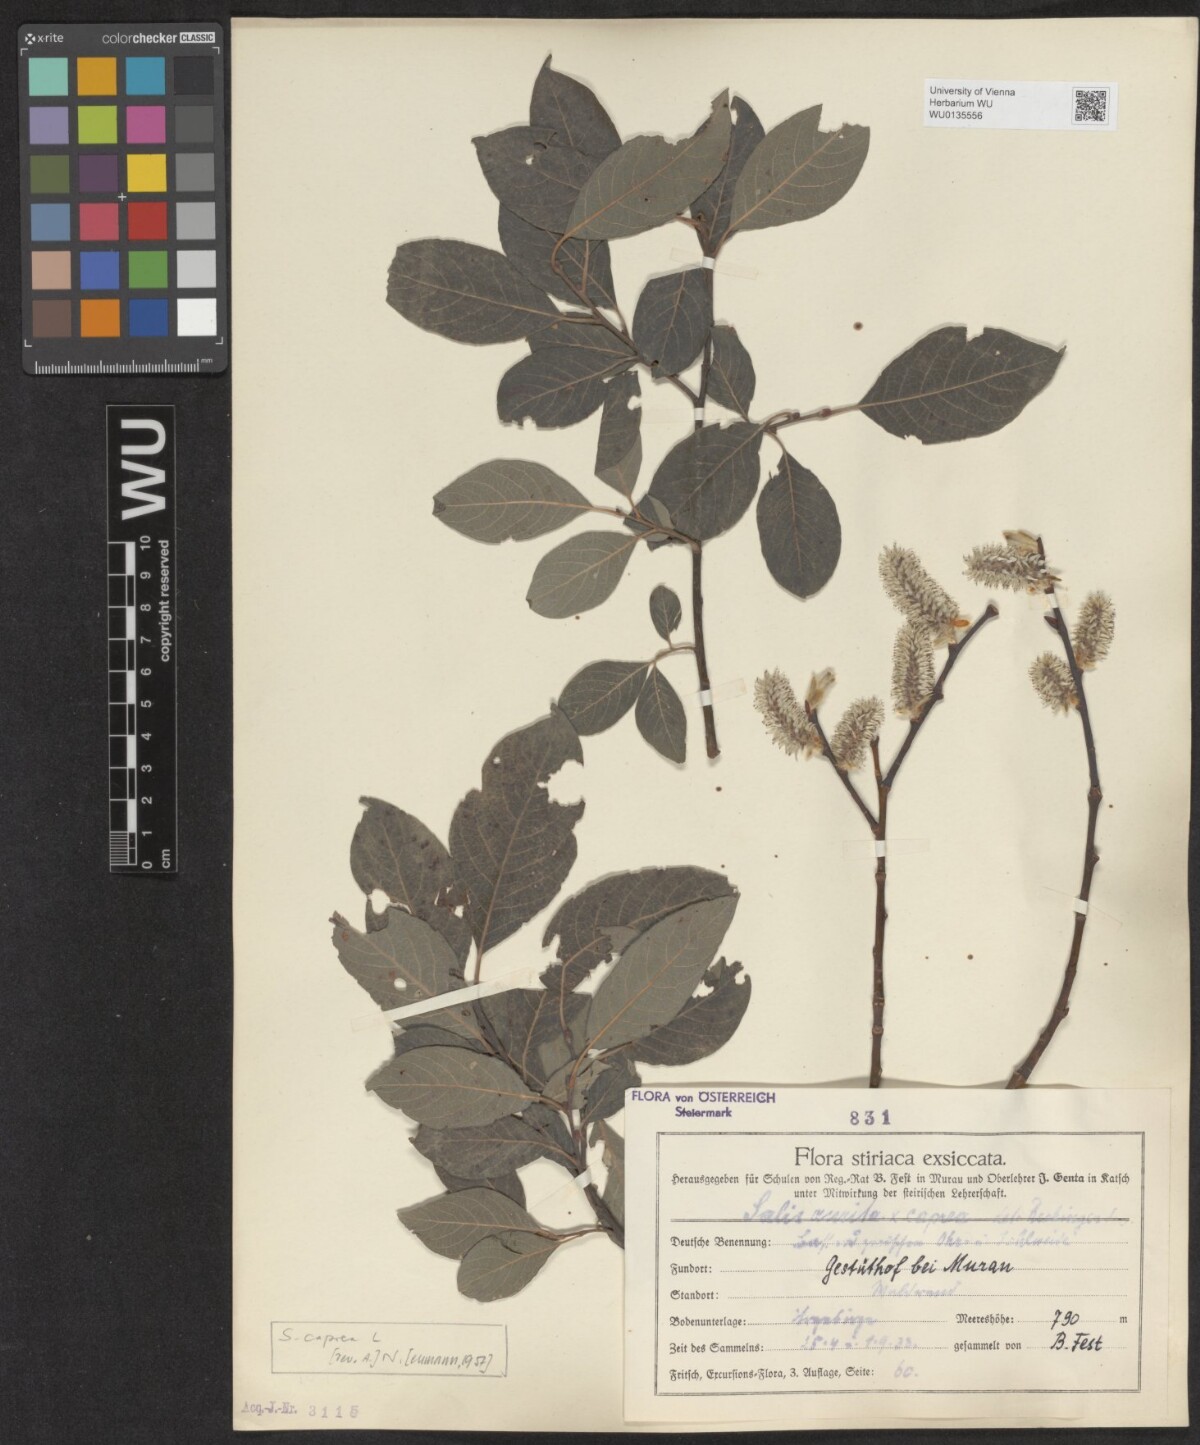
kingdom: Plantae
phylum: Tracheophyta
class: Magnoliopsida
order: Malpighiales
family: Salicaceae
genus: Salix
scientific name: Salix caprea
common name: Goat willow
